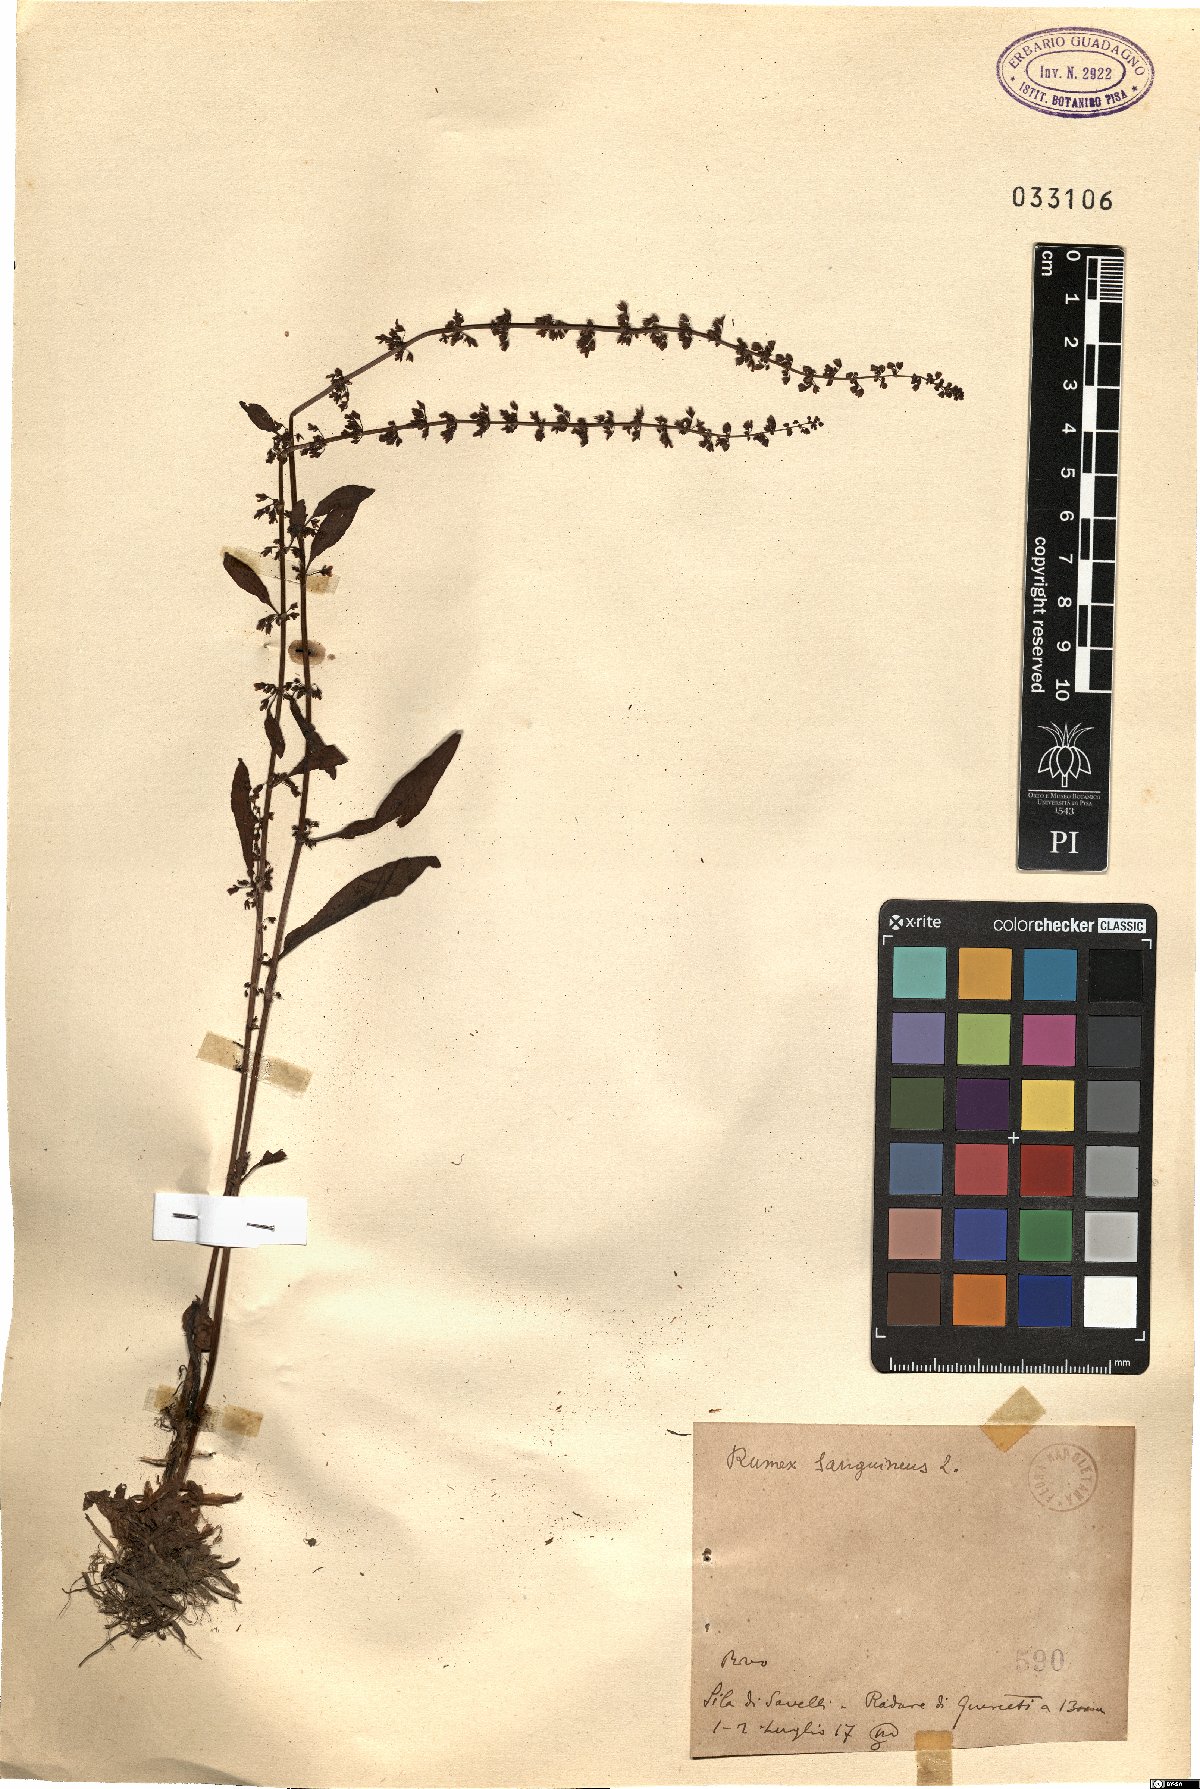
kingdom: Plantae
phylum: Tracheophyta
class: Magnoliopsida
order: Caryophyllales
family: Polygonaceae
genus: Rumex
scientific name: Rumex sanguineus
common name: Wood dock
